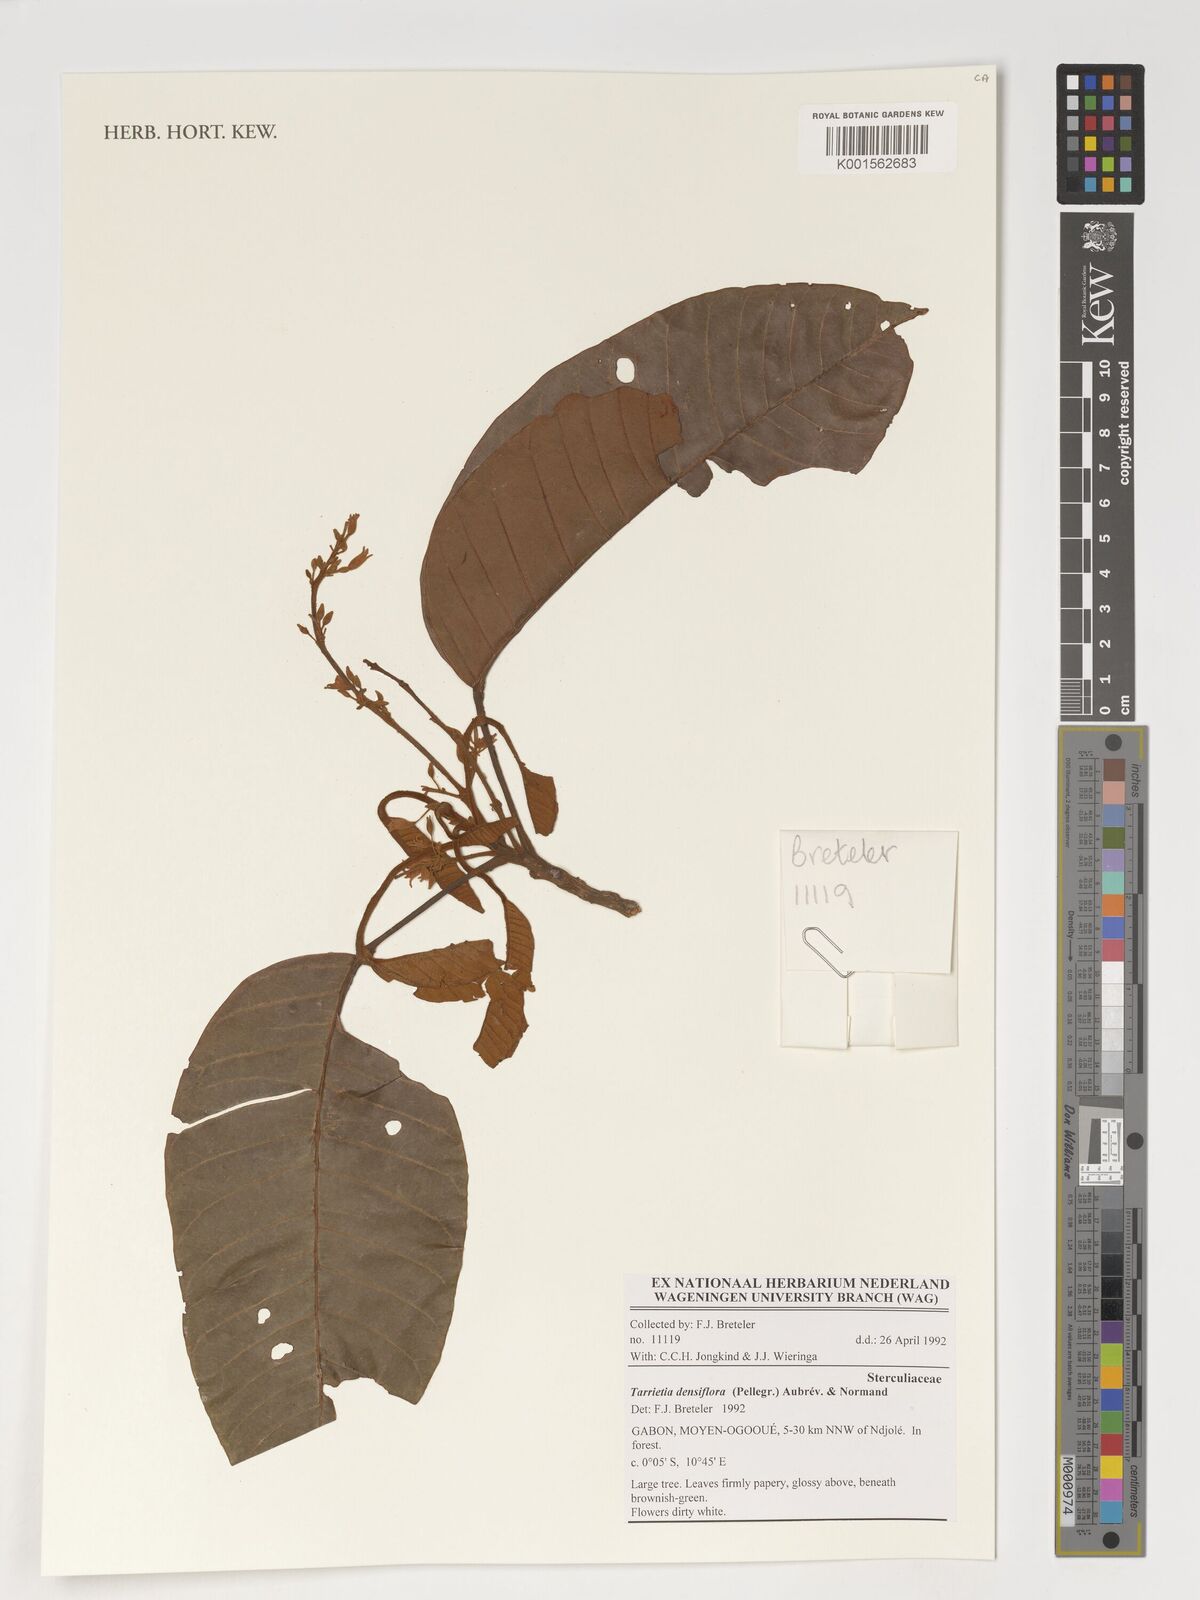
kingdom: Plantae
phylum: Tracheophyta
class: Magnoliopsida
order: Malvales
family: Malvaceae
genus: Heritiera
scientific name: Heritiera densiflora
